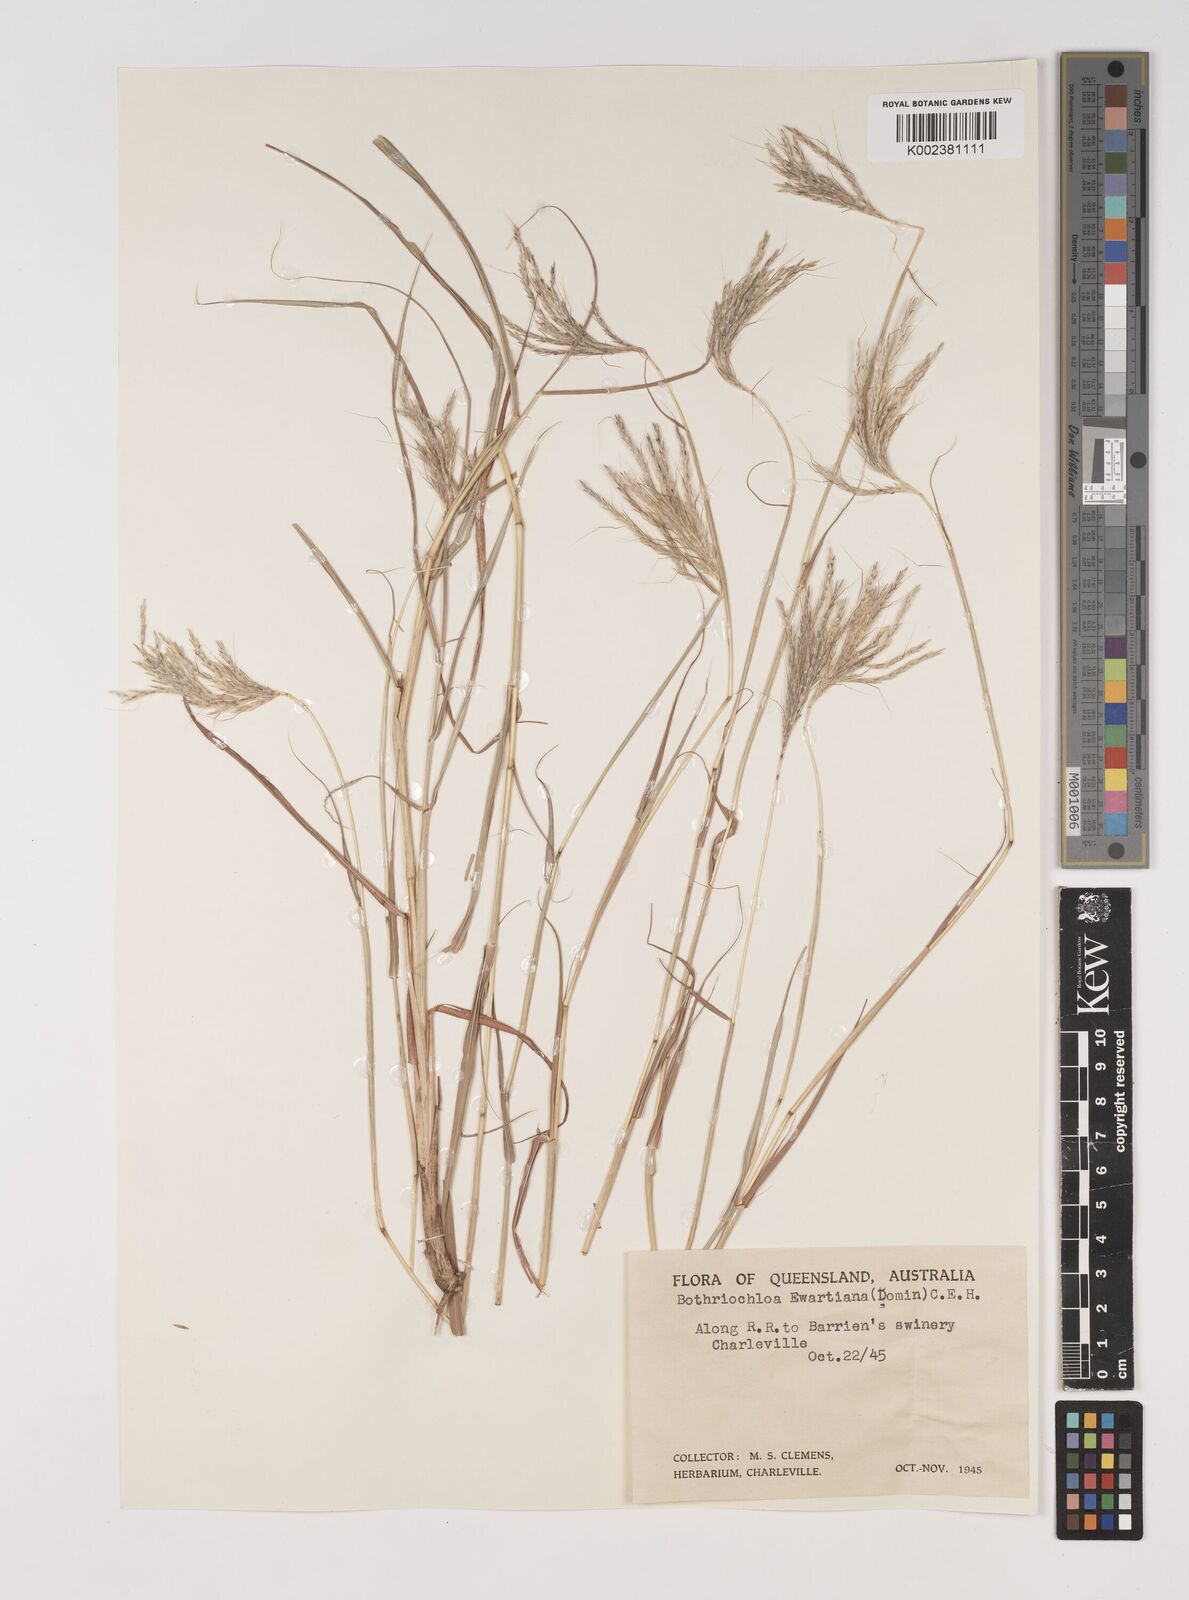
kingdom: Plantae
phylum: Tracheophyta
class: Liliopsida
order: Poales
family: Poaceae
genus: Bothriochloa
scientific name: Bothriochloa ewartiana
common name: Desert-bluegrass
